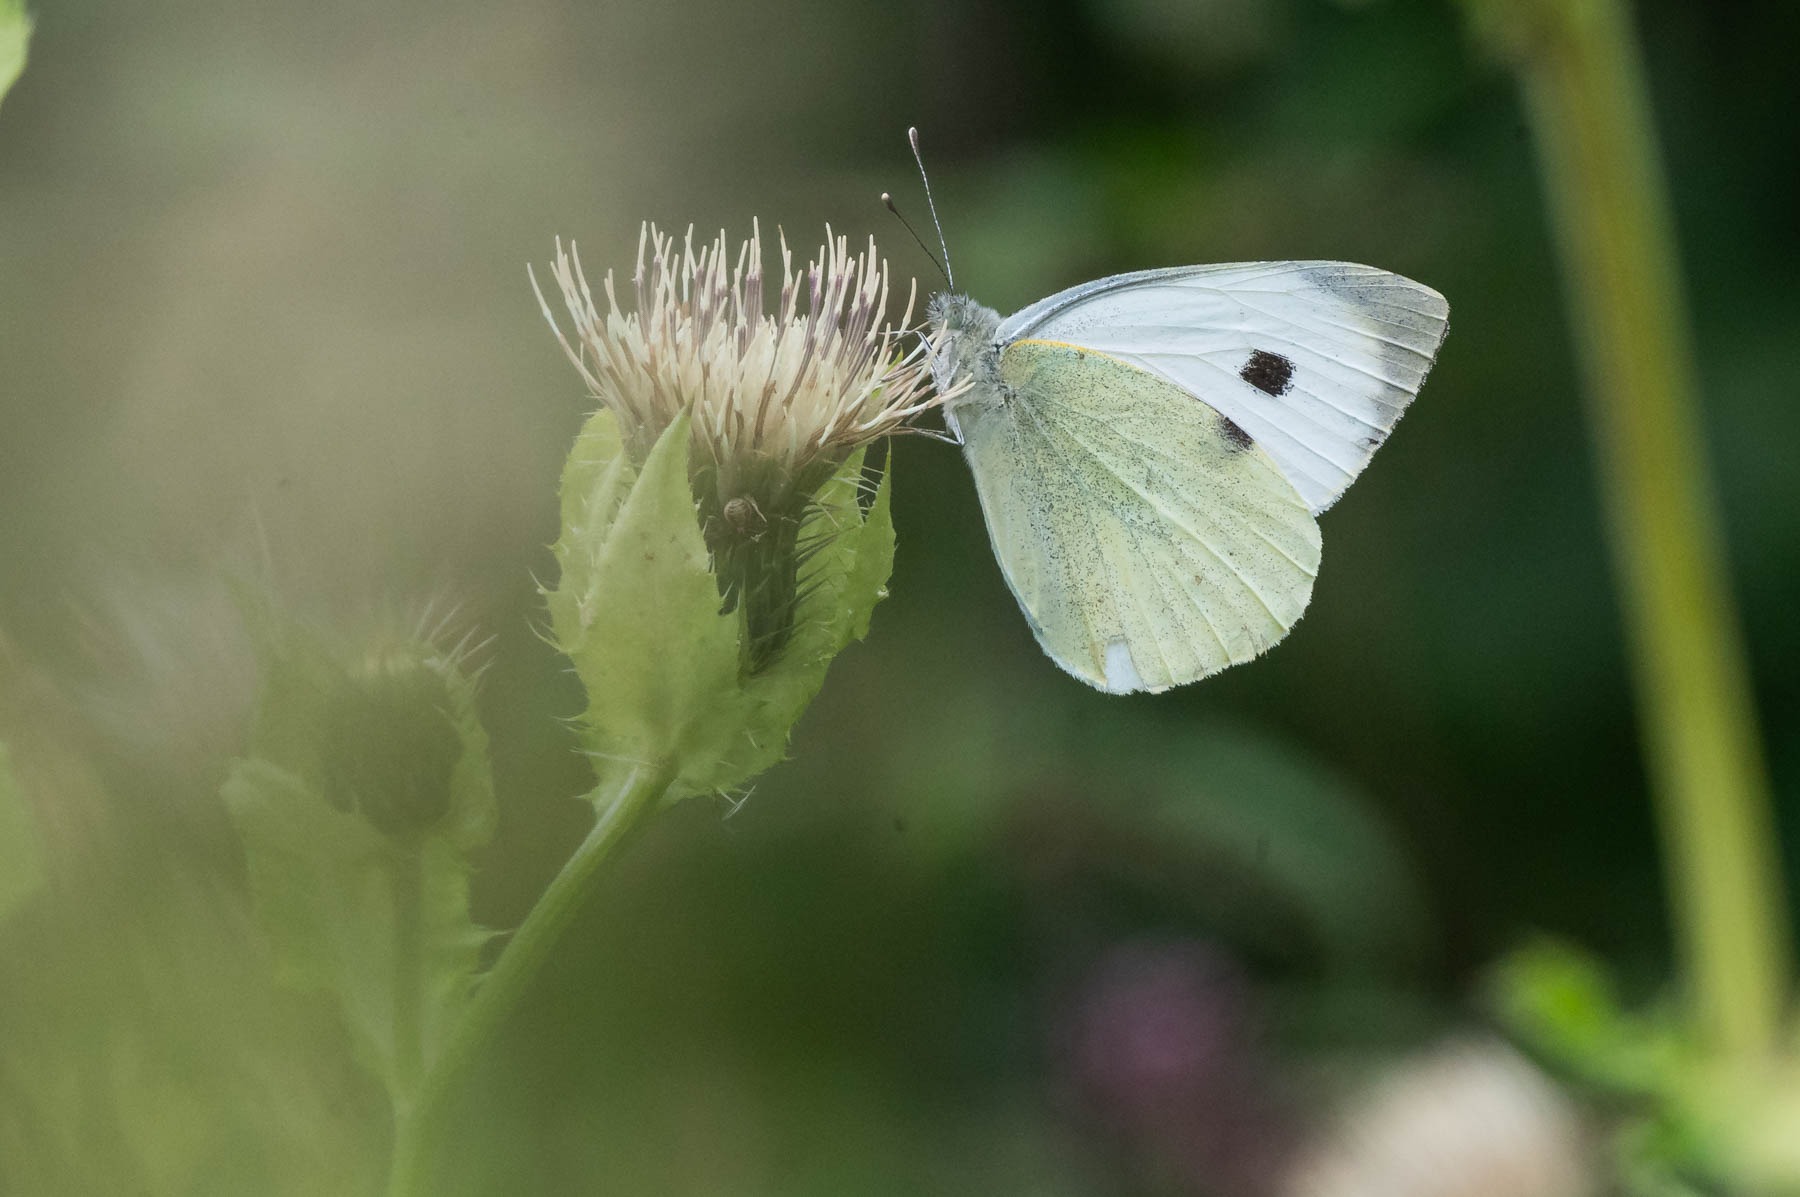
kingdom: Animalia
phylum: Arthropoda
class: Insecta
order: Lepidoptera
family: Pieridae
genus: Pieris
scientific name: Pieris brassicae
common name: Stor kålsommerfugl
